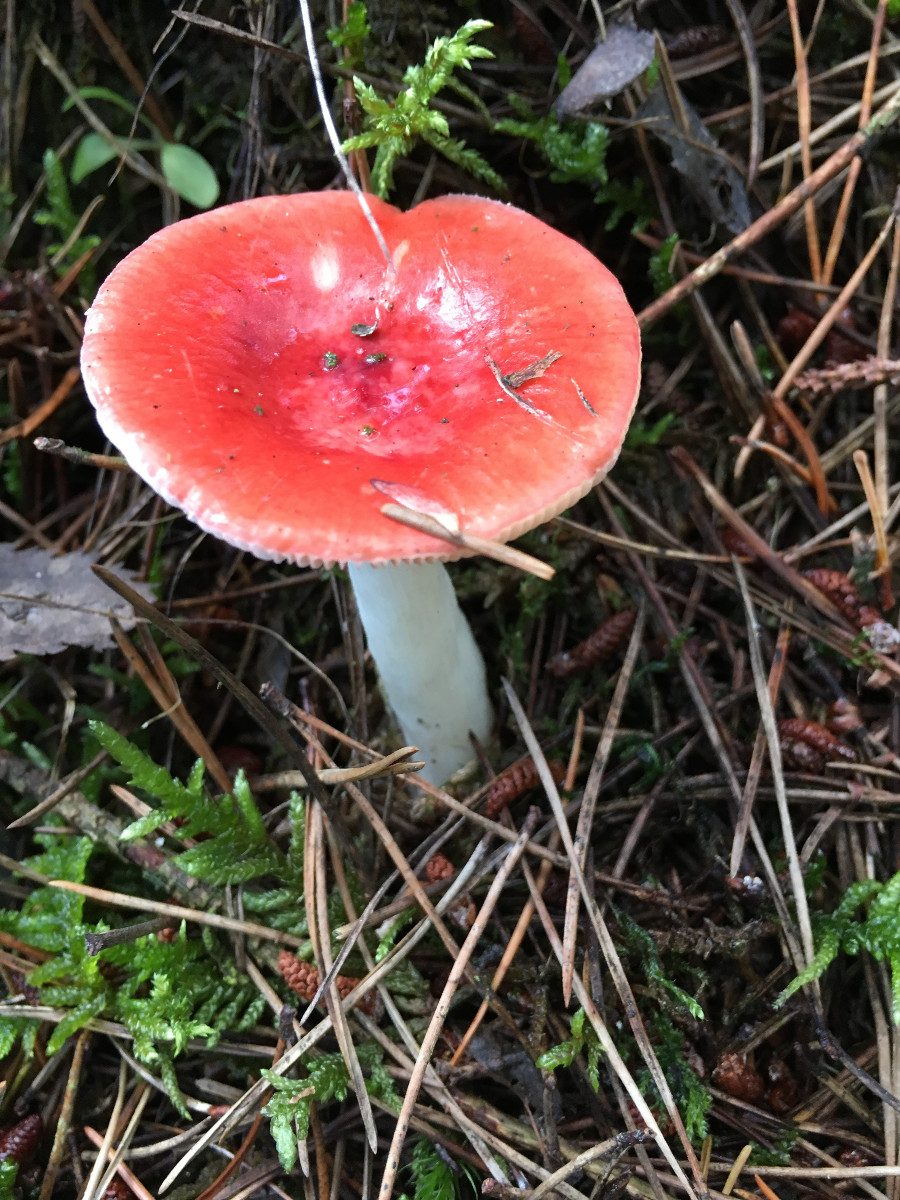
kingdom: Fungi
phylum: Basidiomycota
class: Agaricomycetes
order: Russulales
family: Russulaceae
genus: Russula
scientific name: Russula emetica
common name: stor gift-skørhat
